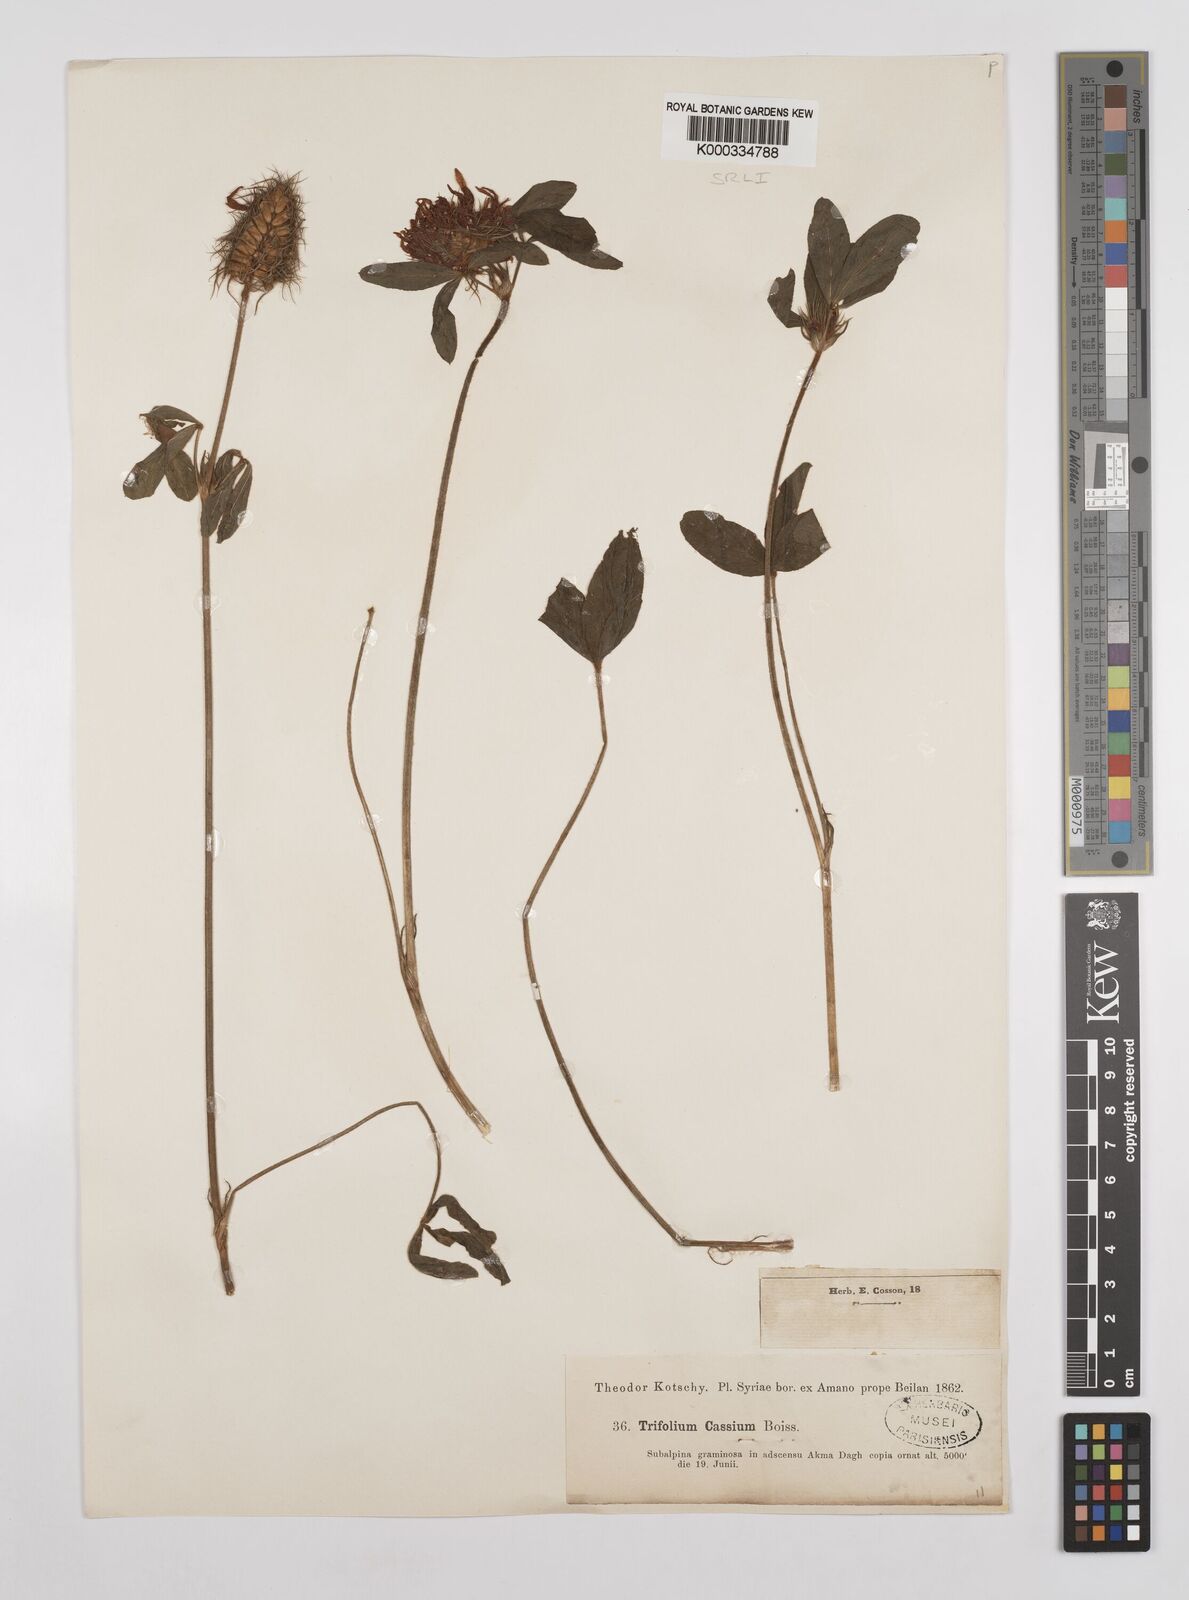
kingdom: Plantae
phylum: Tracheophyta
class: Magnoliopsida
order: Fabales
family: Fabaceae
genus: Trifolium
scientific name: Trifolium ochroleucon
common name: Sulphur clover
